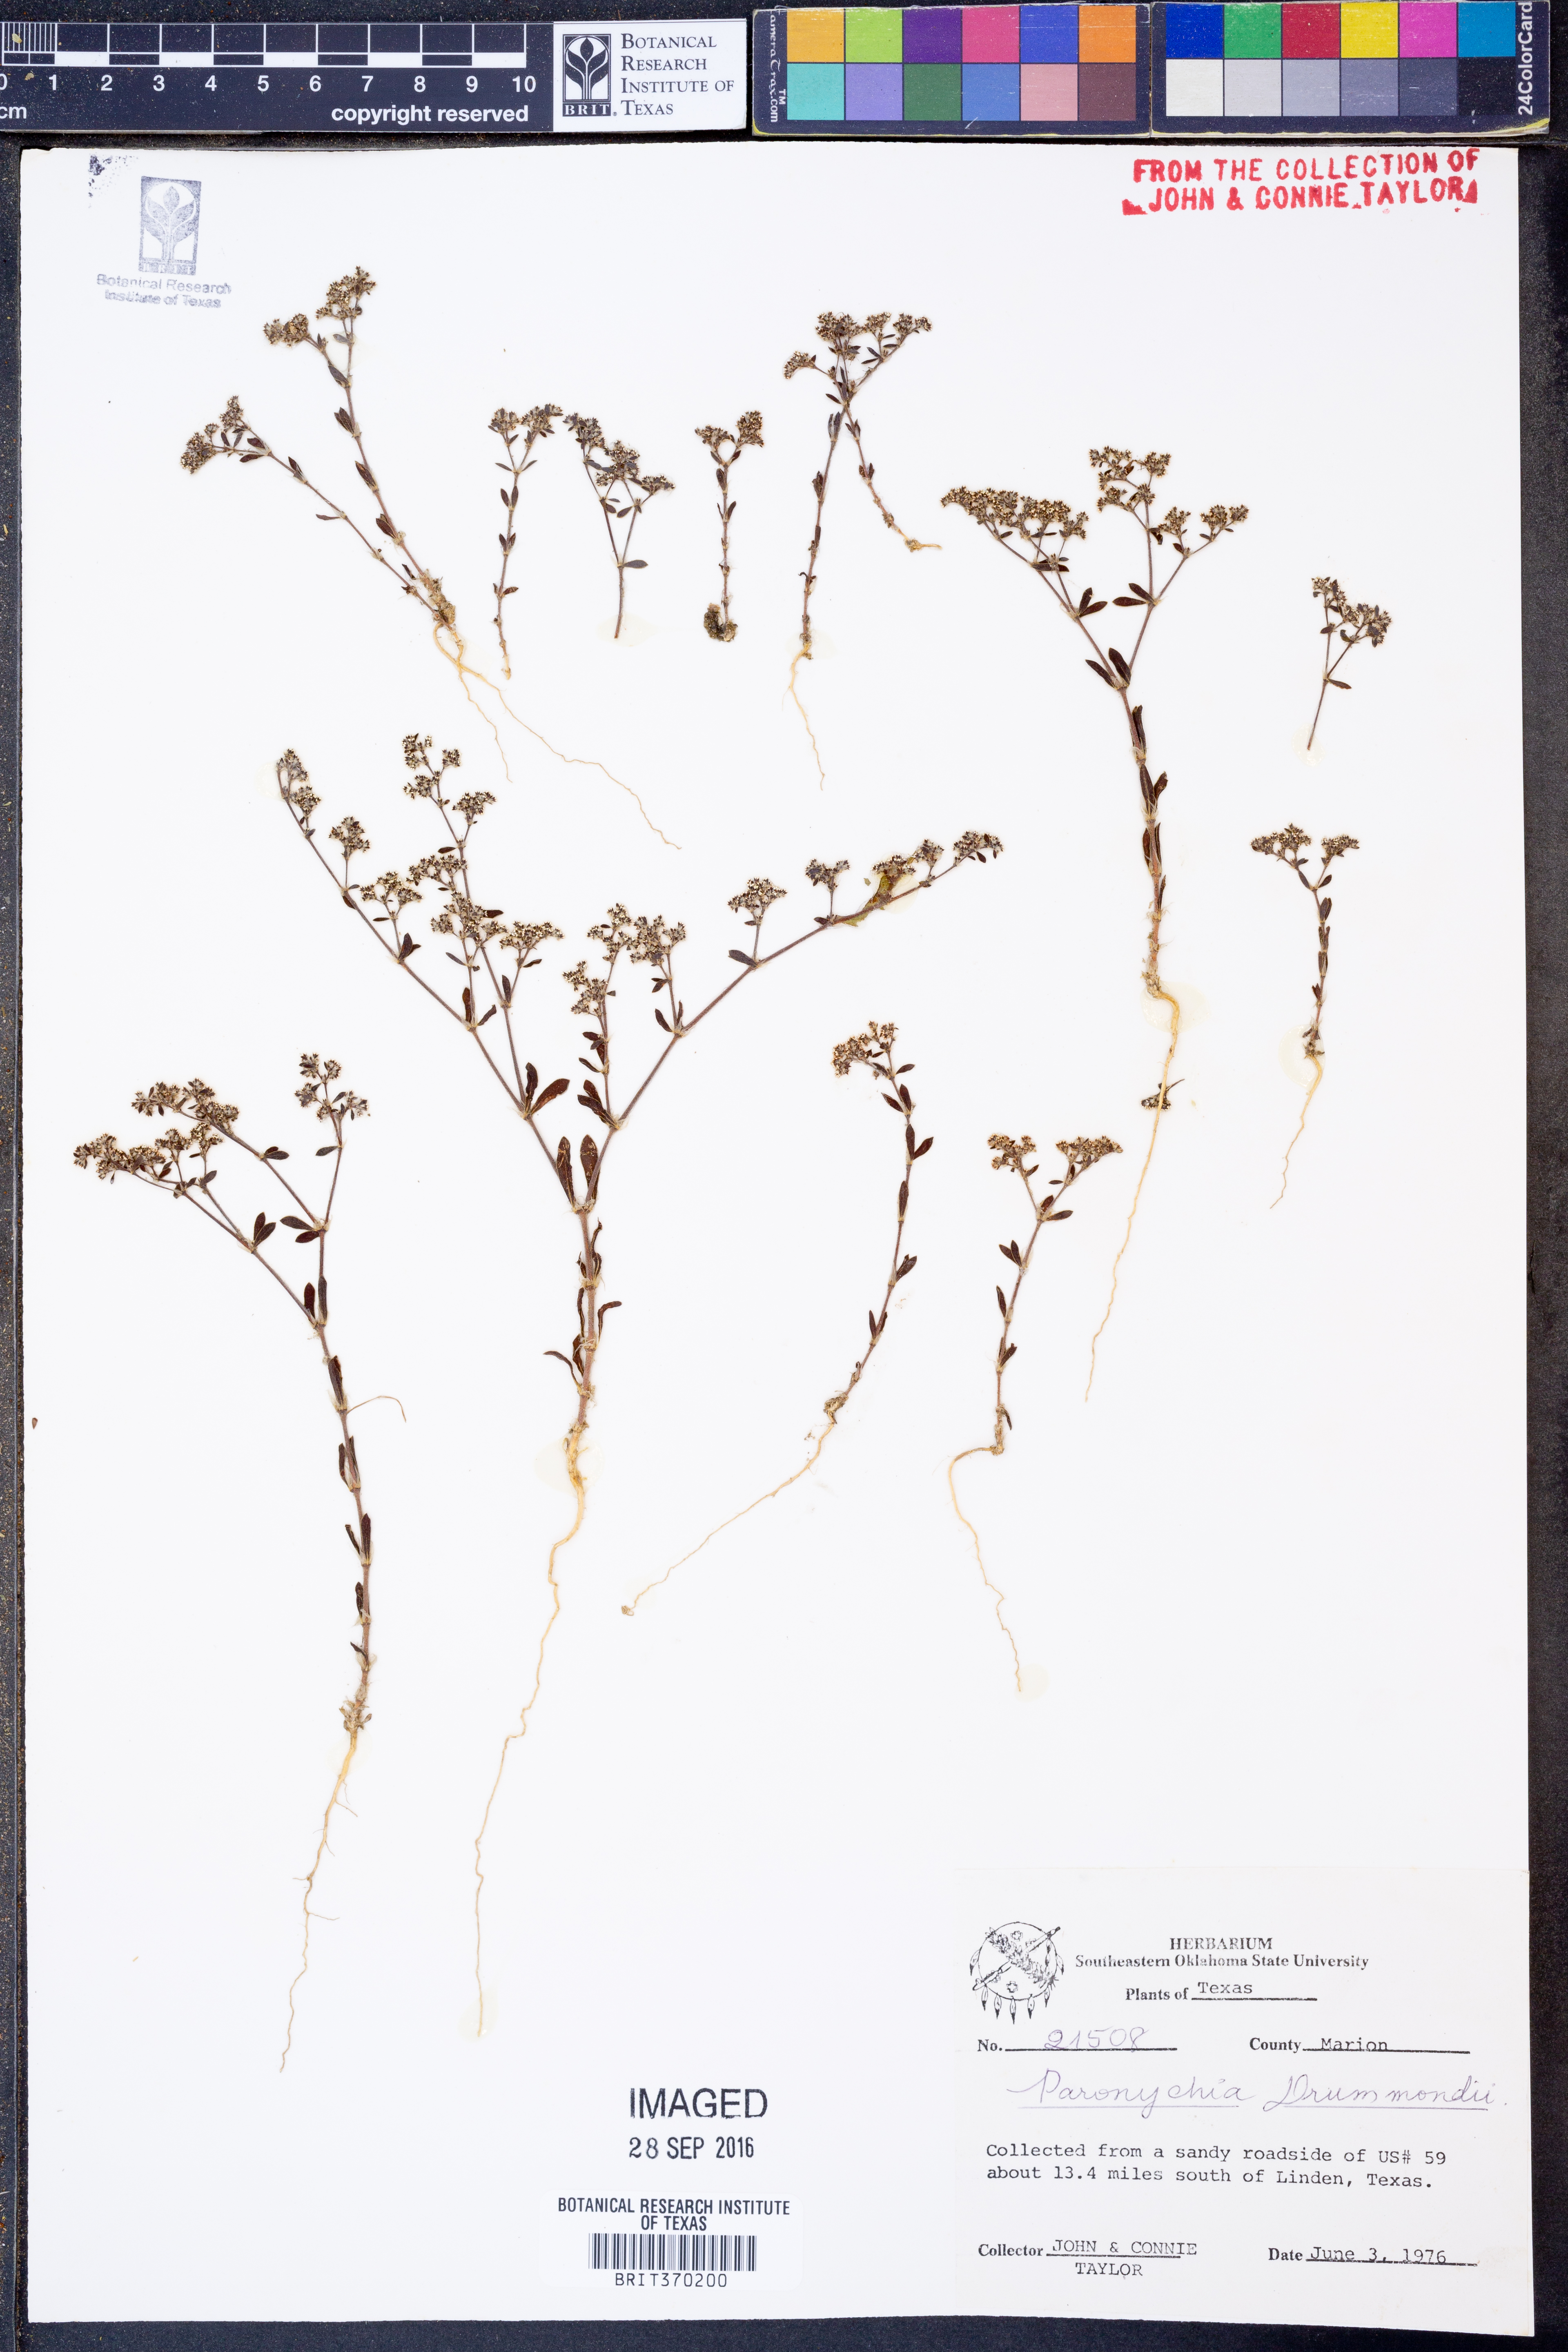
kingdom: Plantae
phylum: Tracheophyta
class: Magnoliopsida
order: Caryophyllales
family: Caryophyllaceae
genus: Paronychia
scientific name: Paronychia drummondii
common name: Drummond's nailwort
